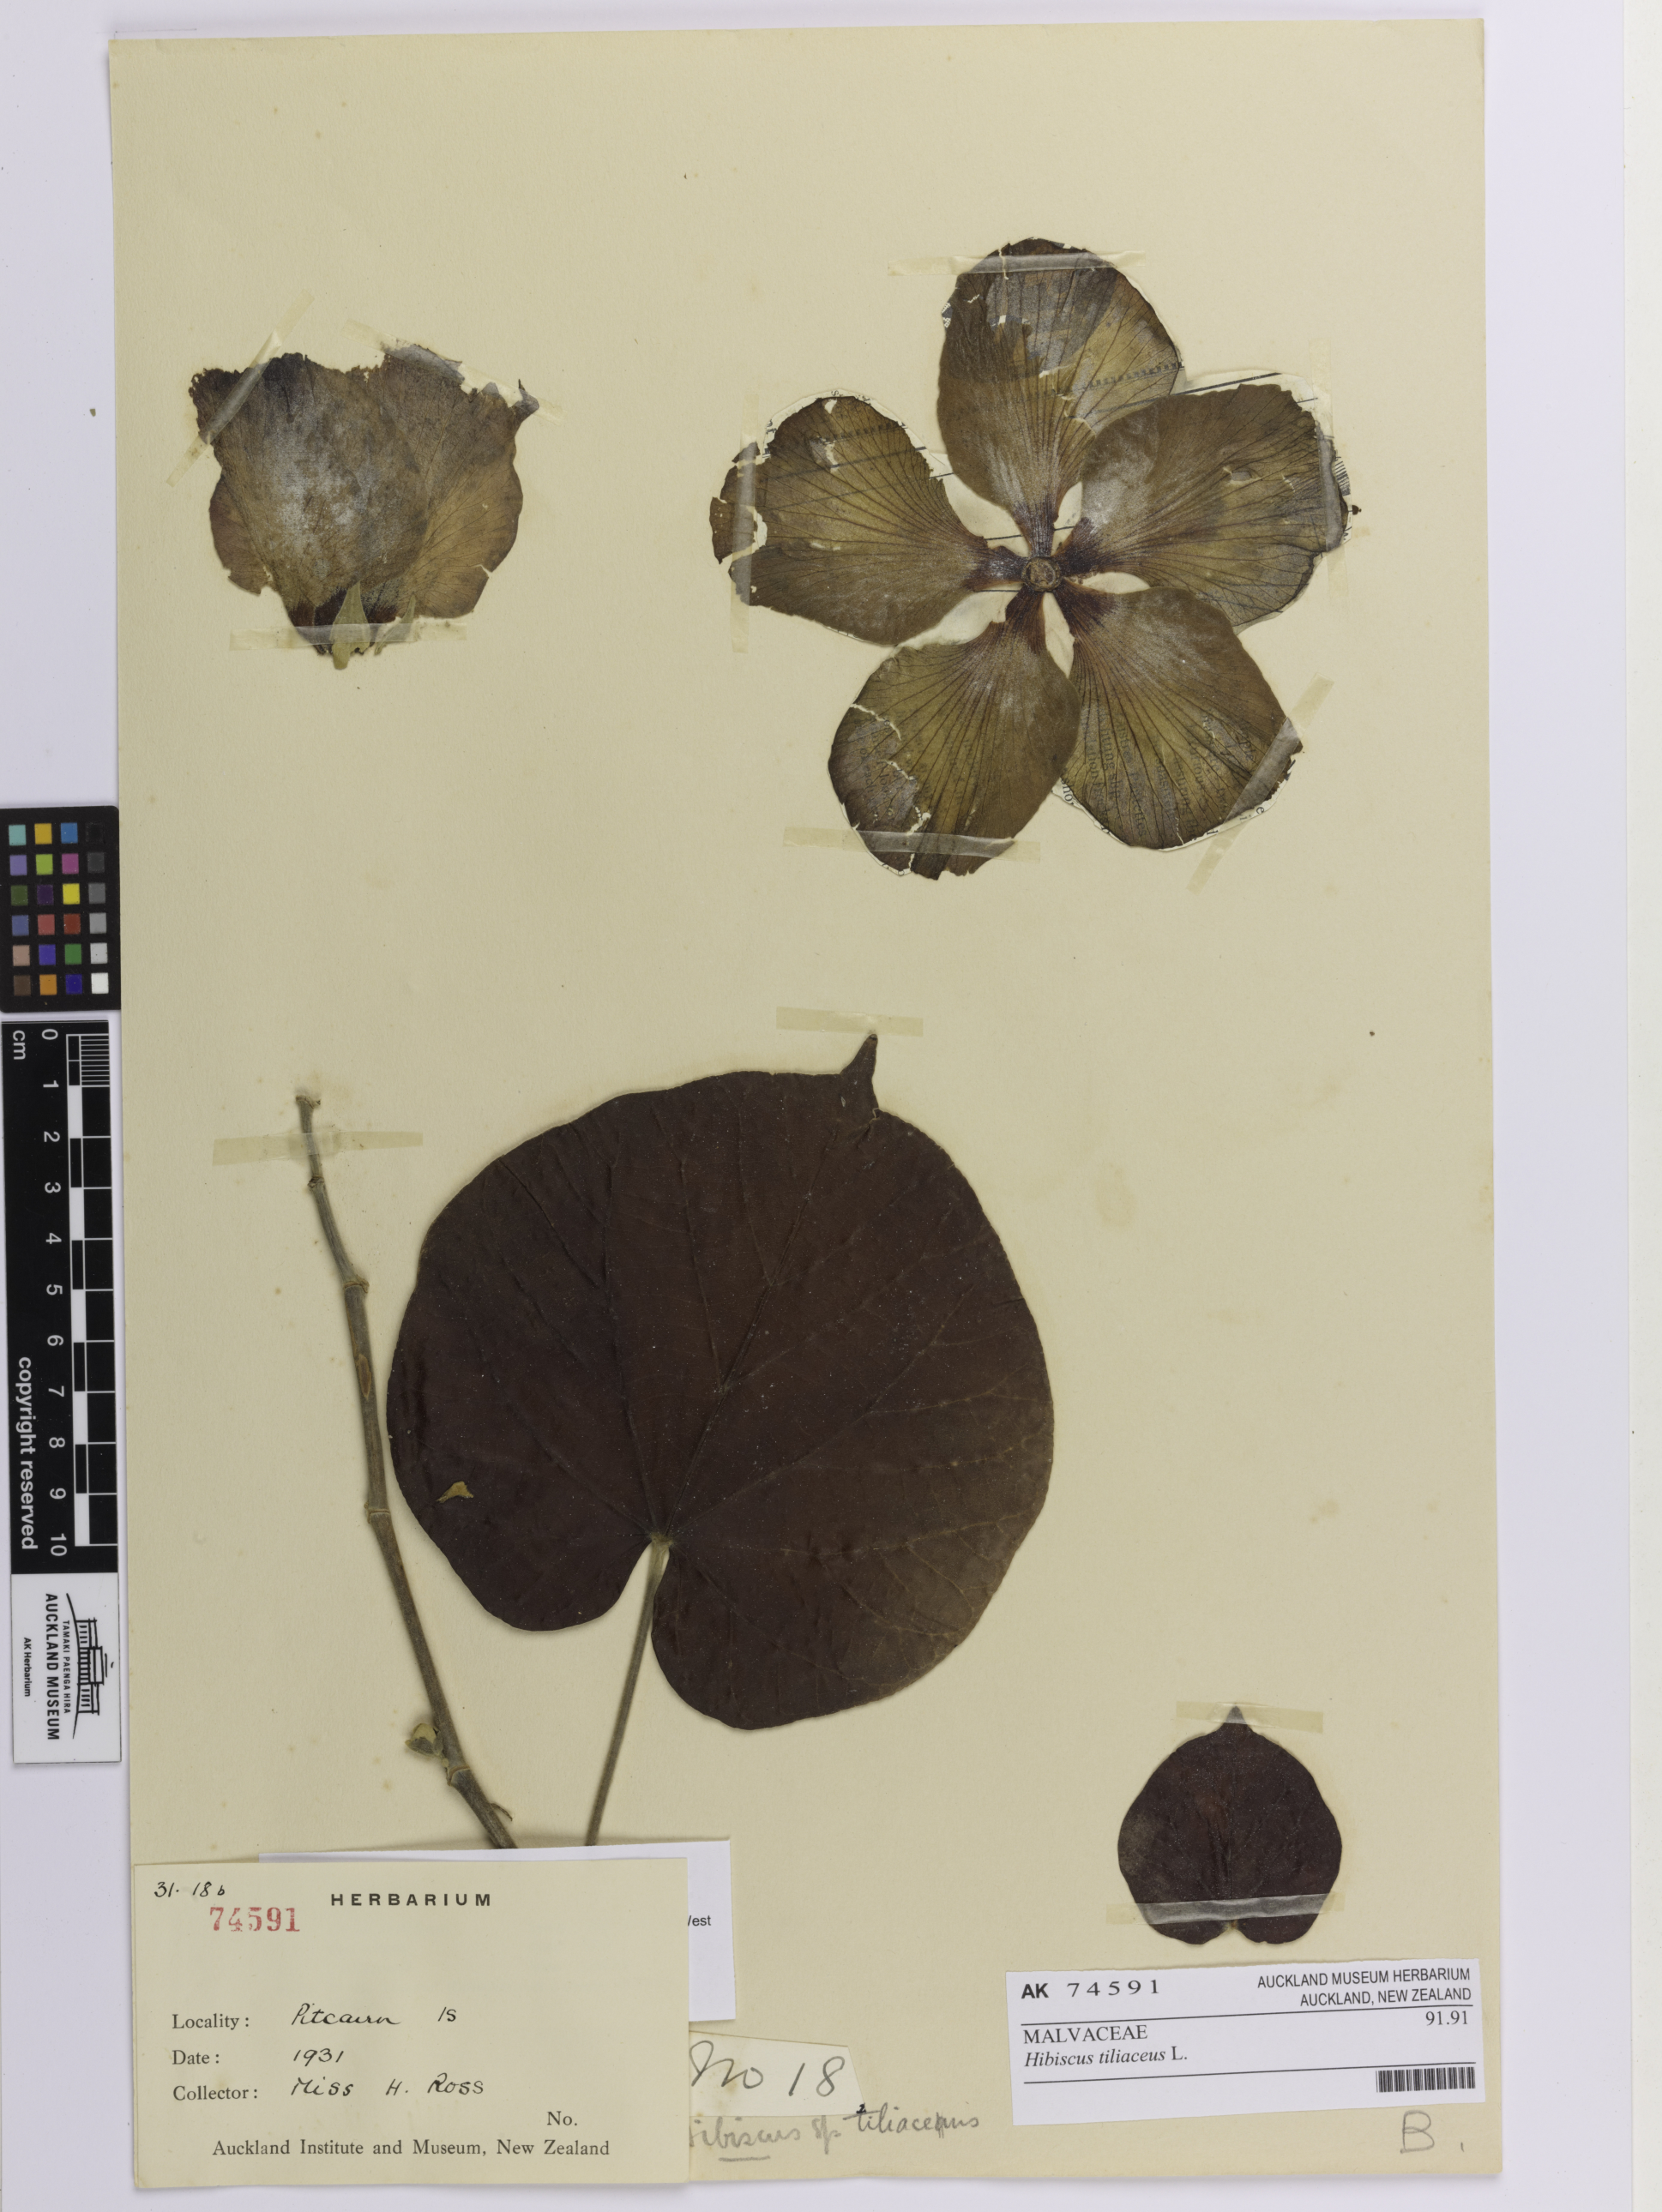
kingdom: Plantae
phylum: Tracheophyta
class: Magnoliopsida
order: Malvales
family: Malvaceae
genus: Talipariti
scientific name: Talipariti tiliaceum
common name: Sea hibiscus
